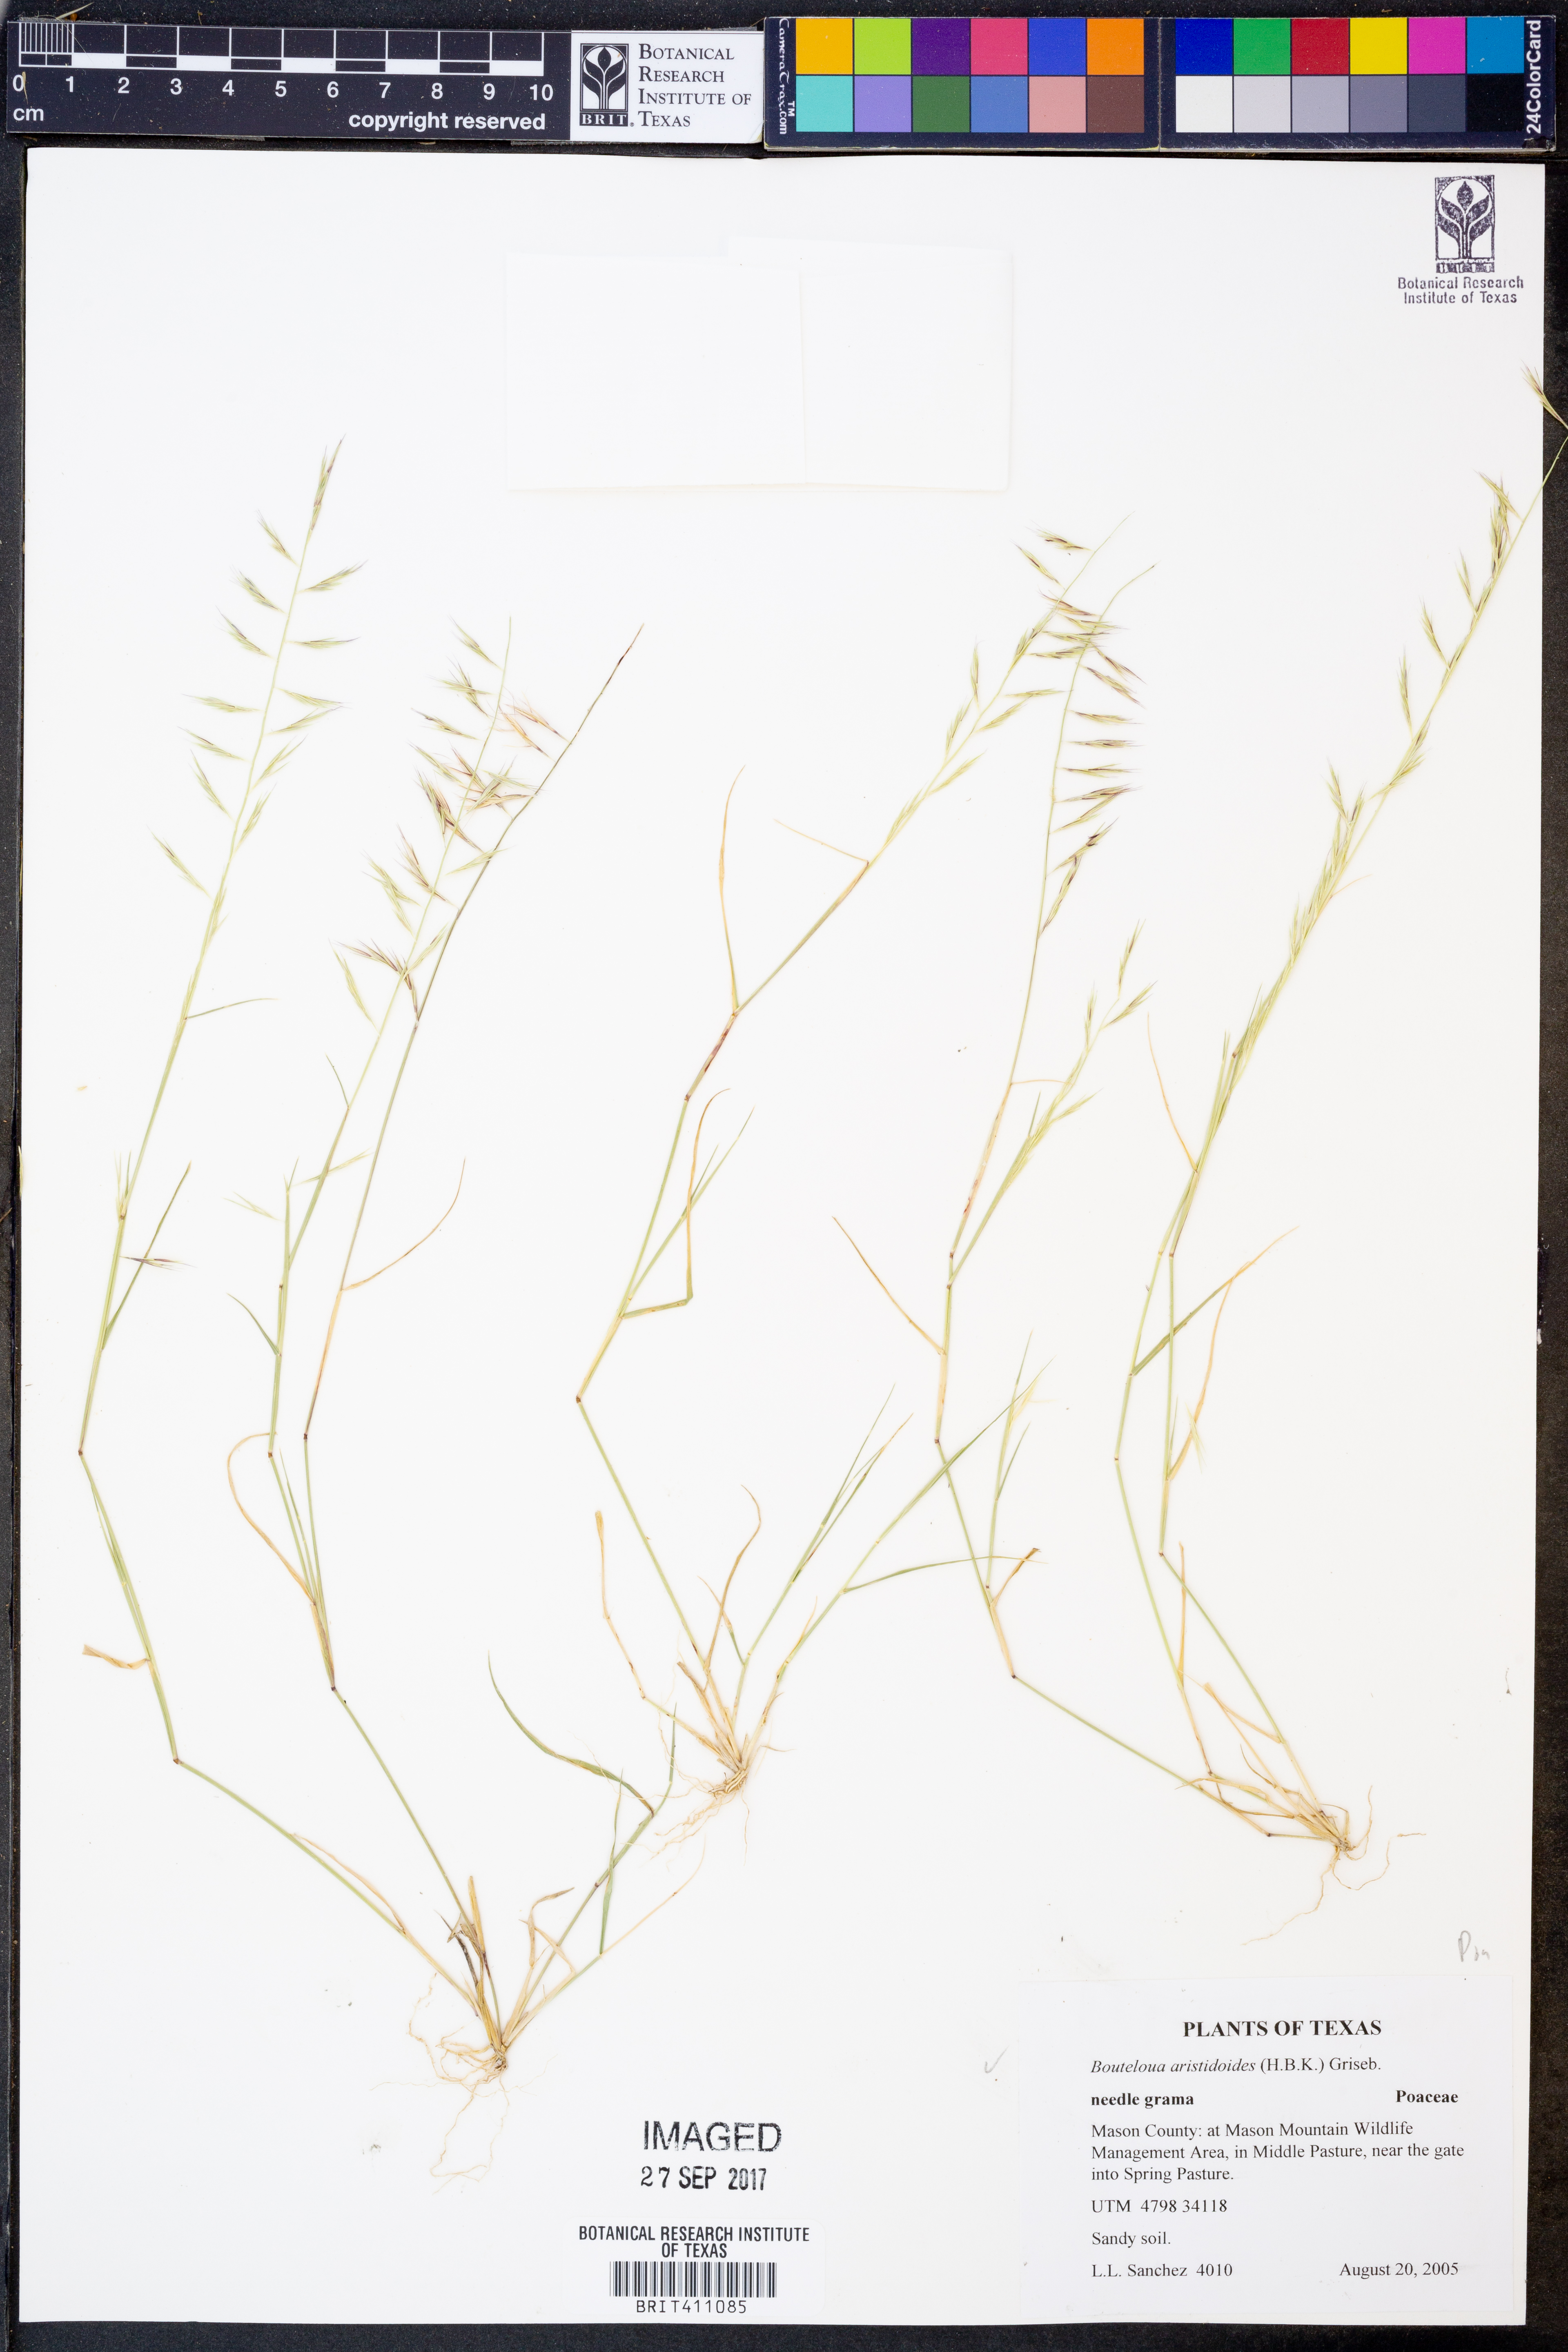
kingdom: Plantae
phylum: Tracheophyta
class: Liliopsida
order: Poales
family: Poaceae
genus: Bouteloua
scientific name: Bouteloua aristidoides
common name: Needle grama
